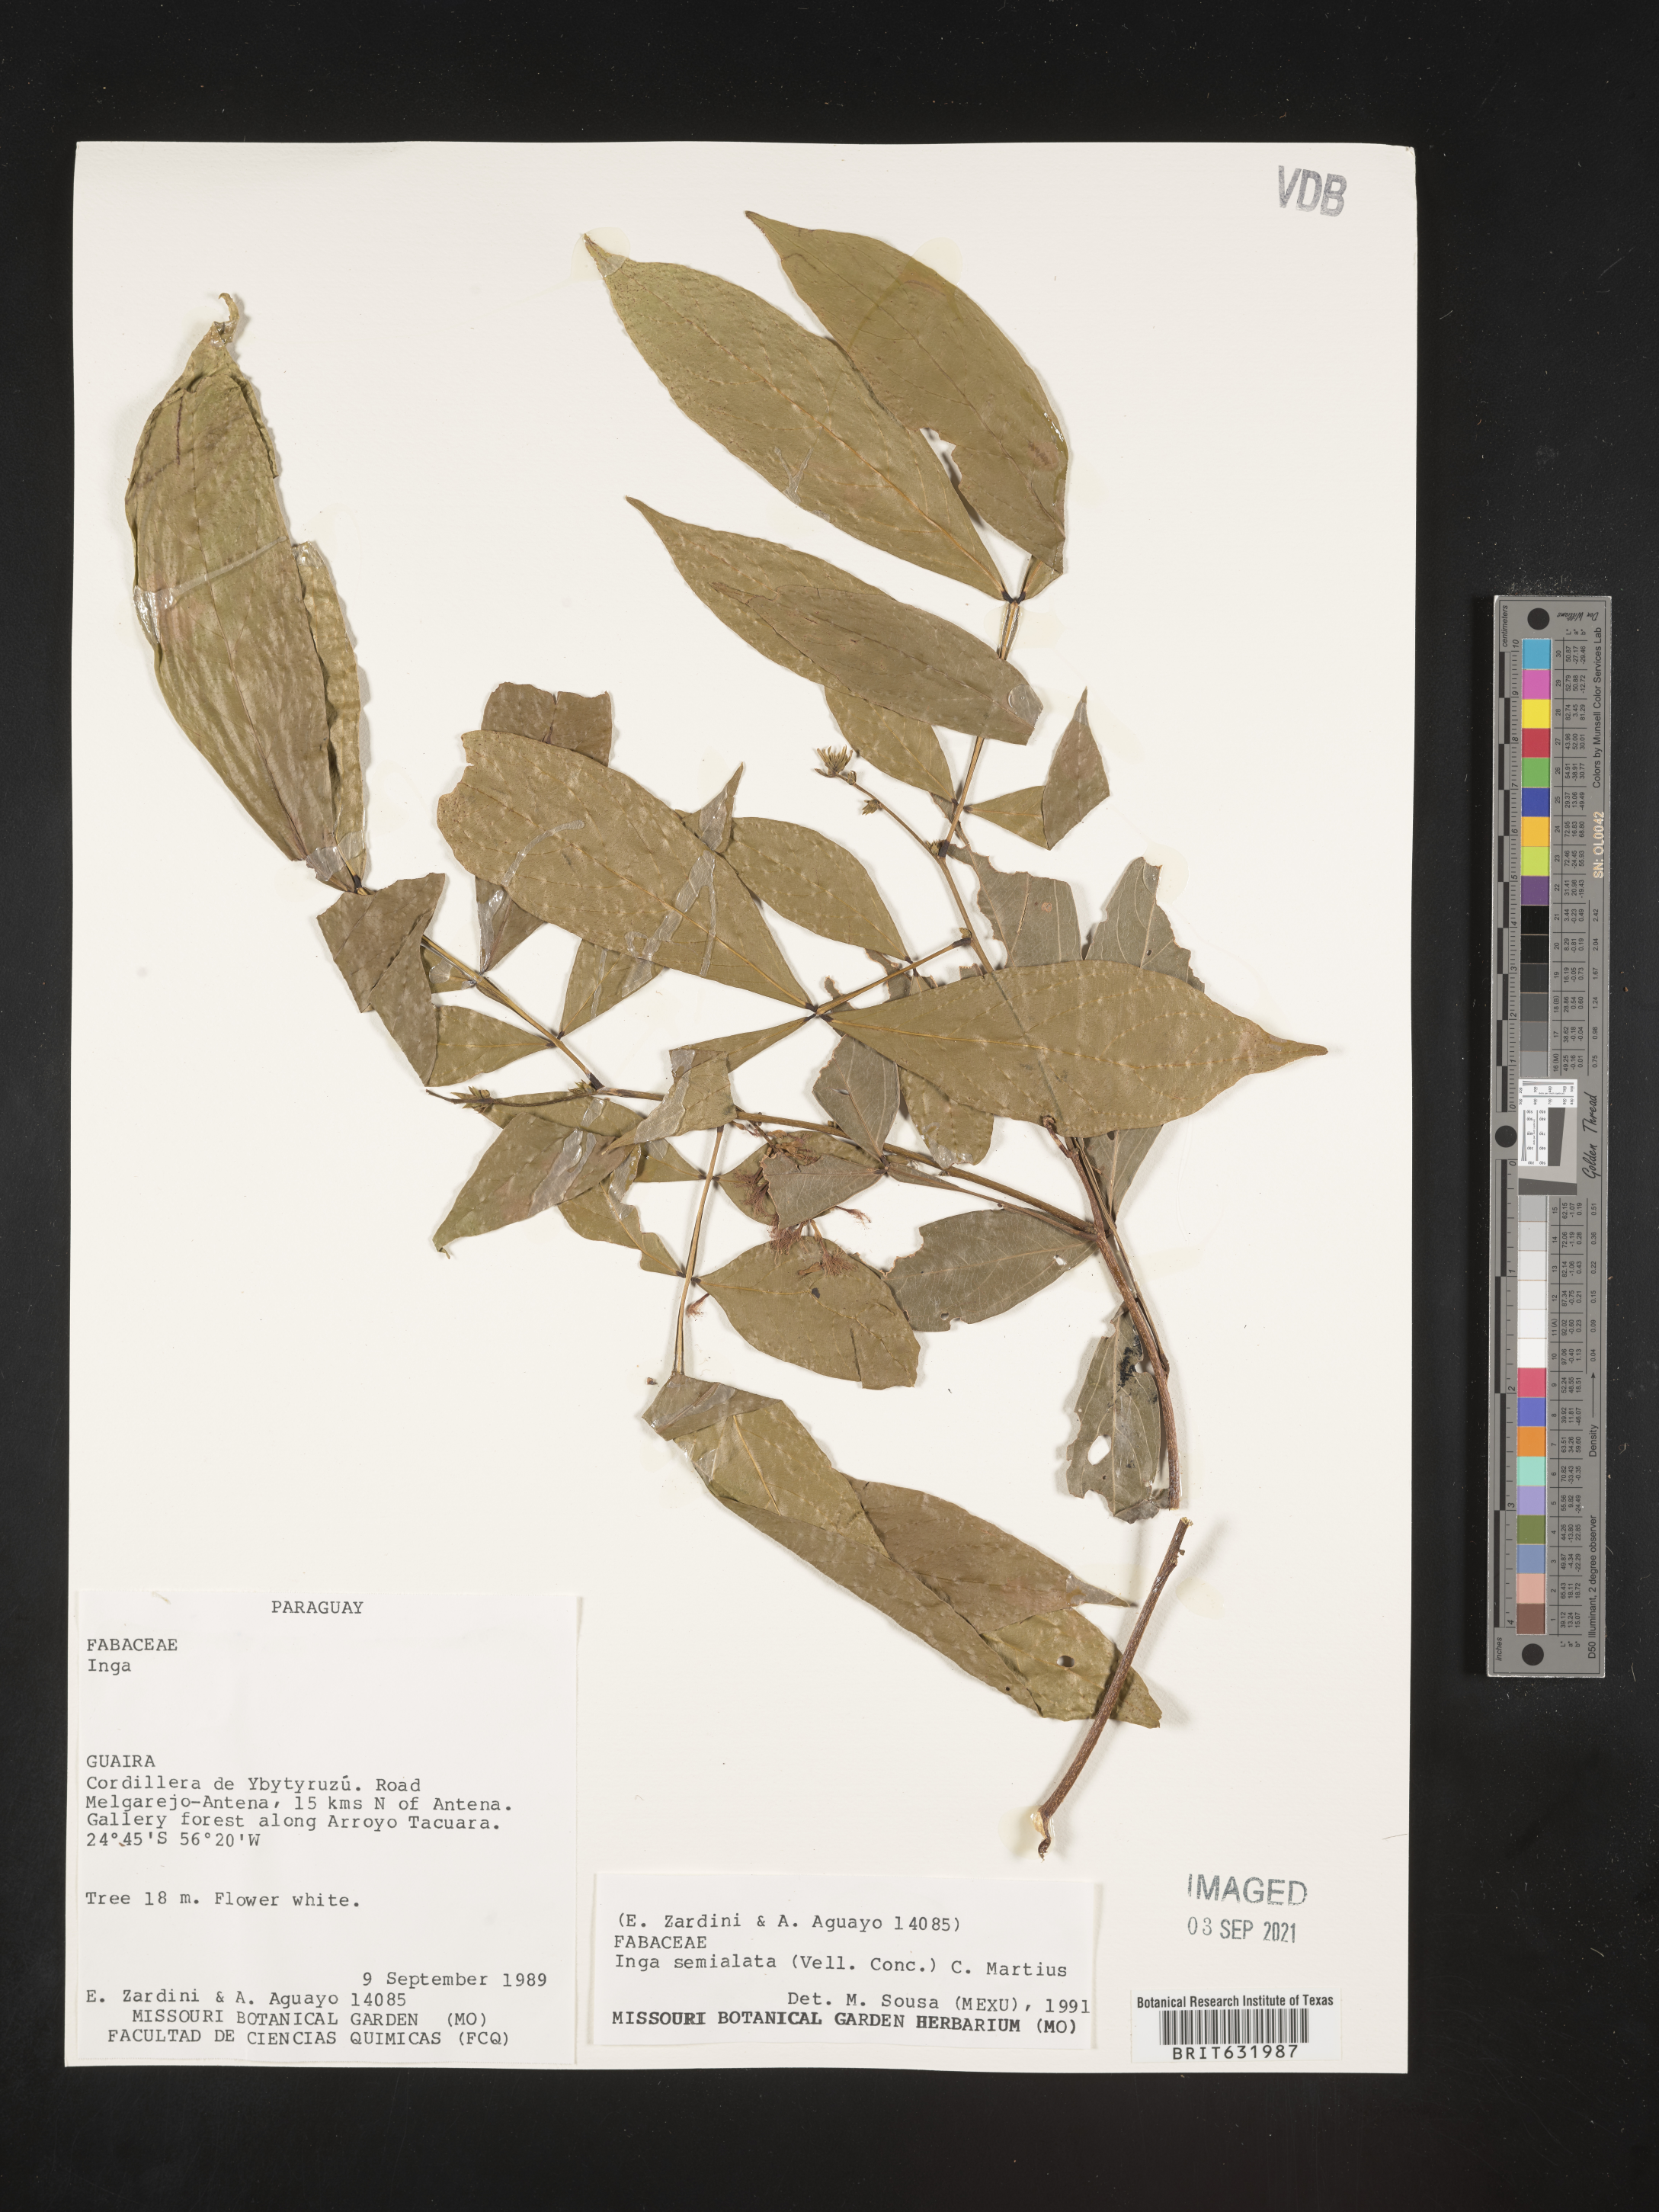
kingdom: Plantae
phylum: Tracheophyta
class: Magnoliopsida
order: Fabales
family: Fabaceae
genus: Inga
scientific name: Inga
